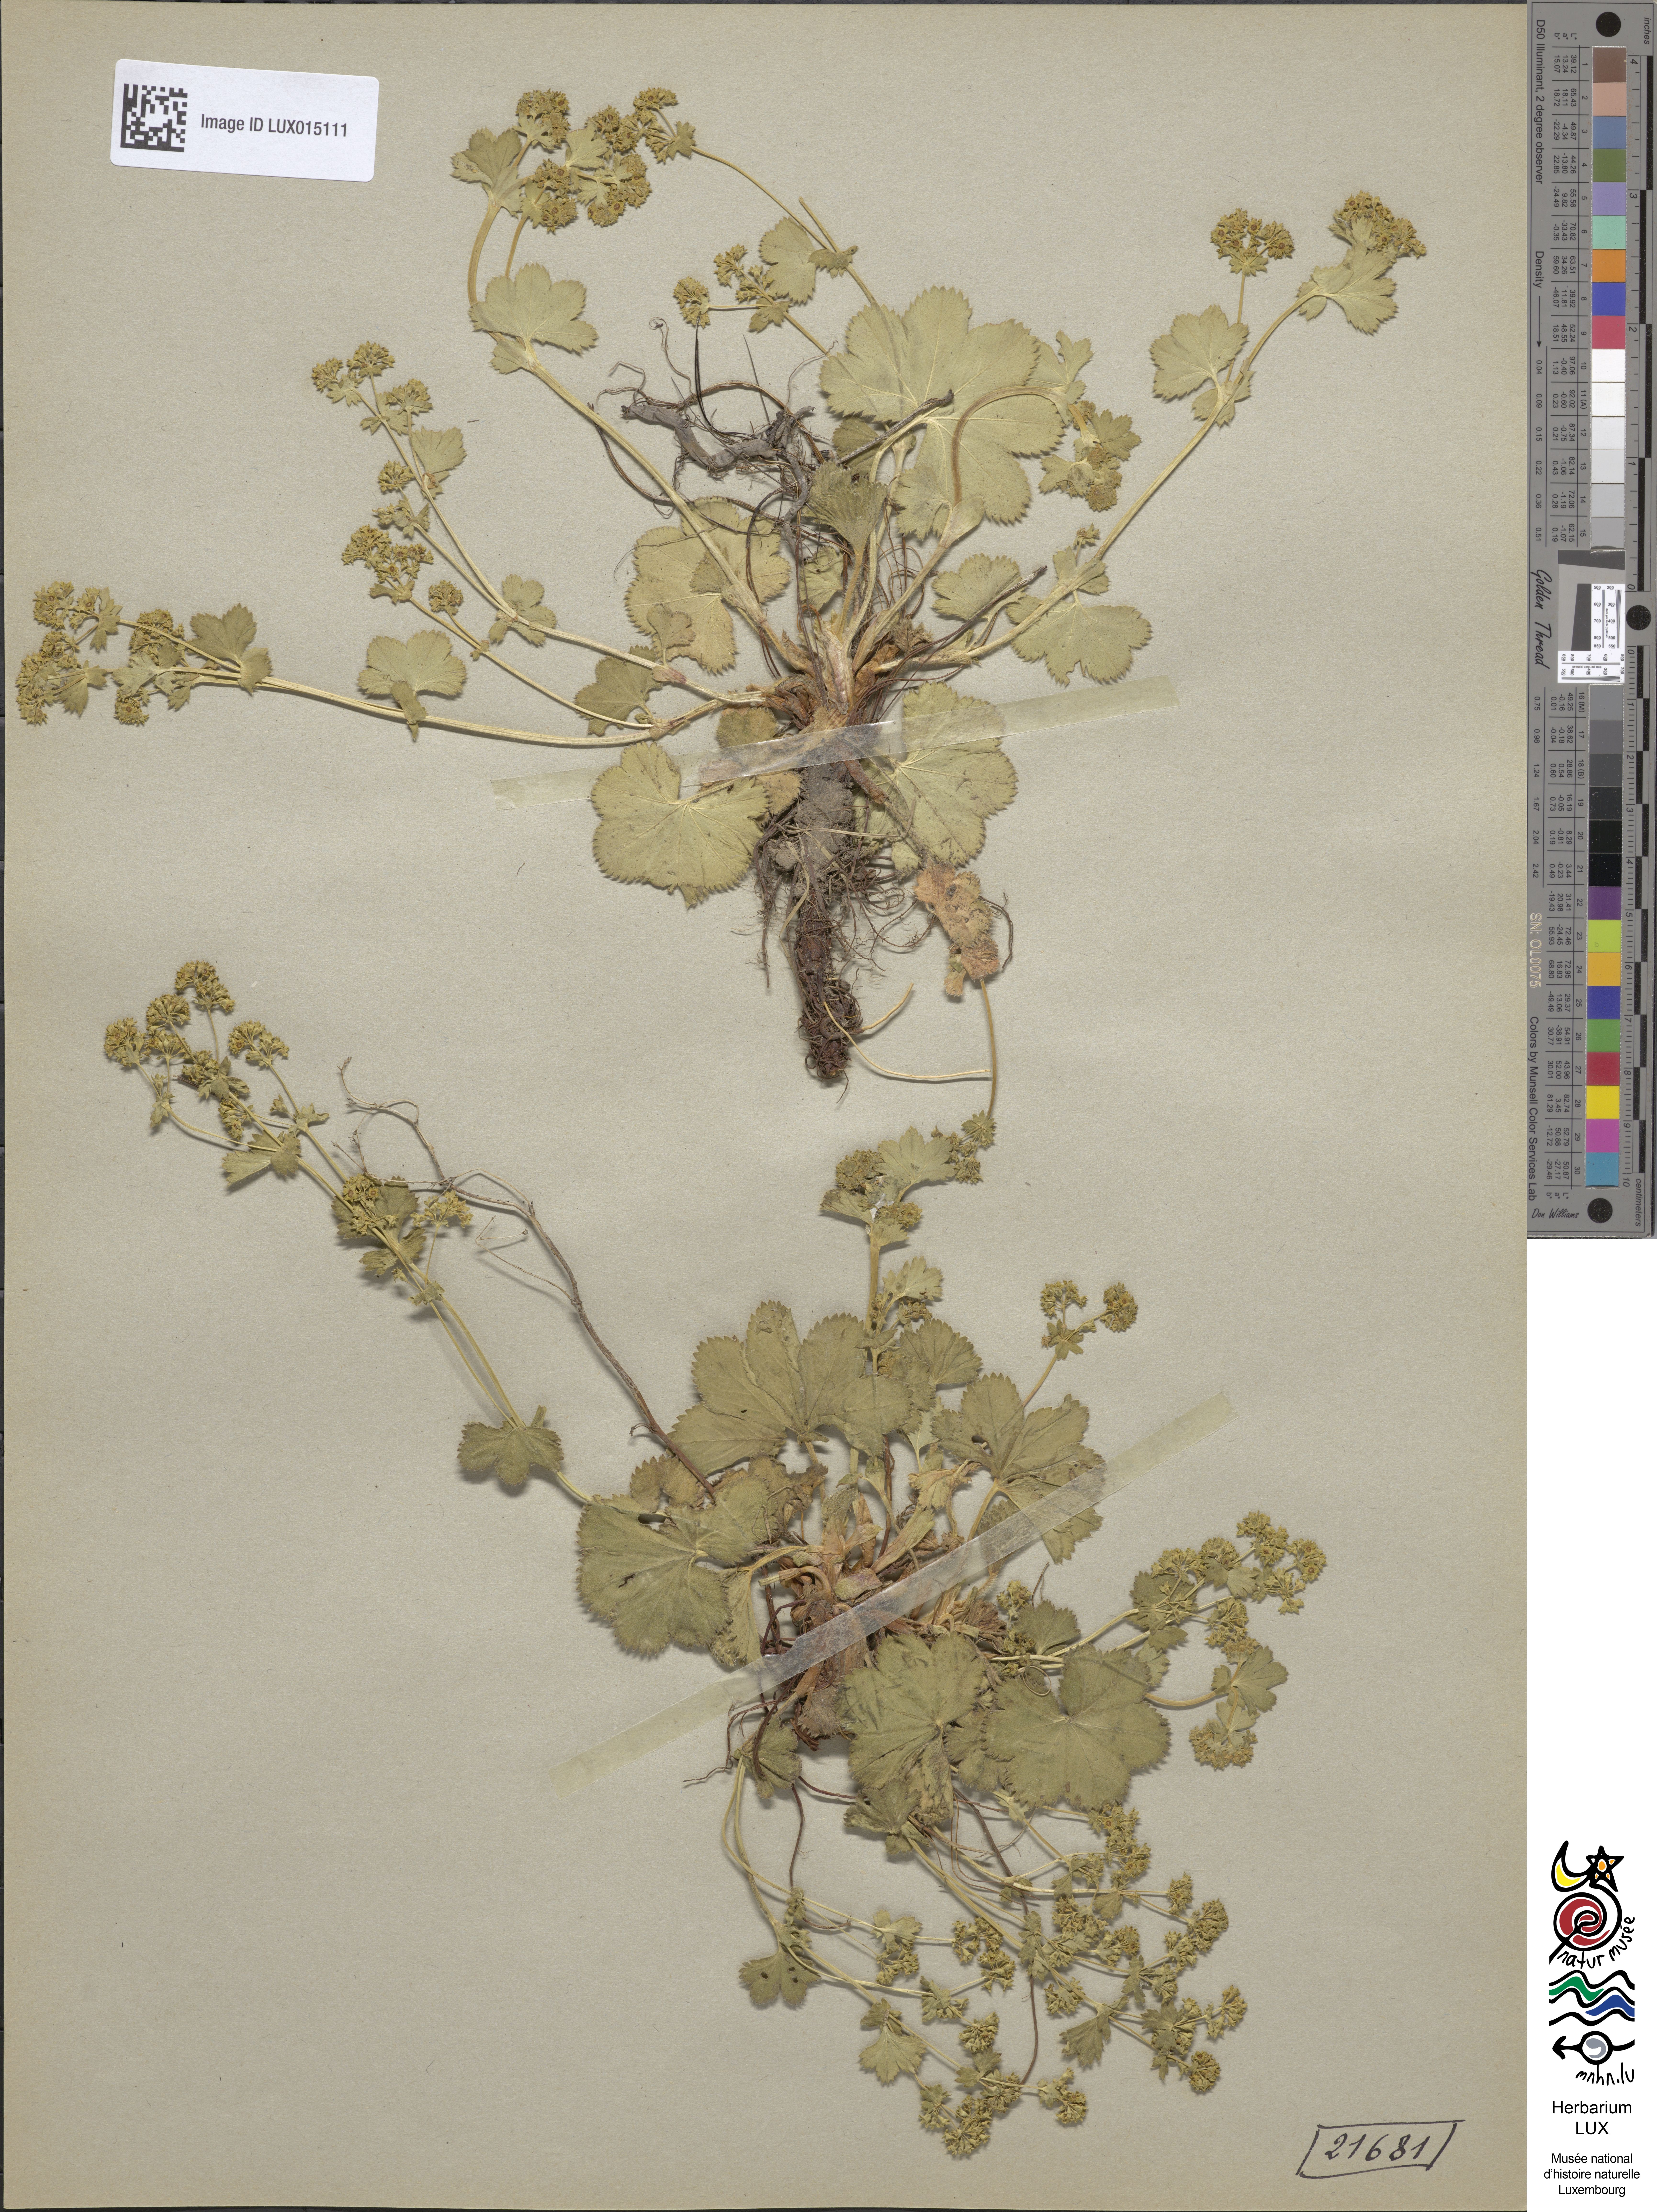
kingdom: Plantae
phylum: Tracheophyta
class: Magnoliopsida
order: Rosales
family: Rosaceae
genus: Alchemilla
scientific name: Alchemilla filicaulis
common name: Hairy lady's-mantle
